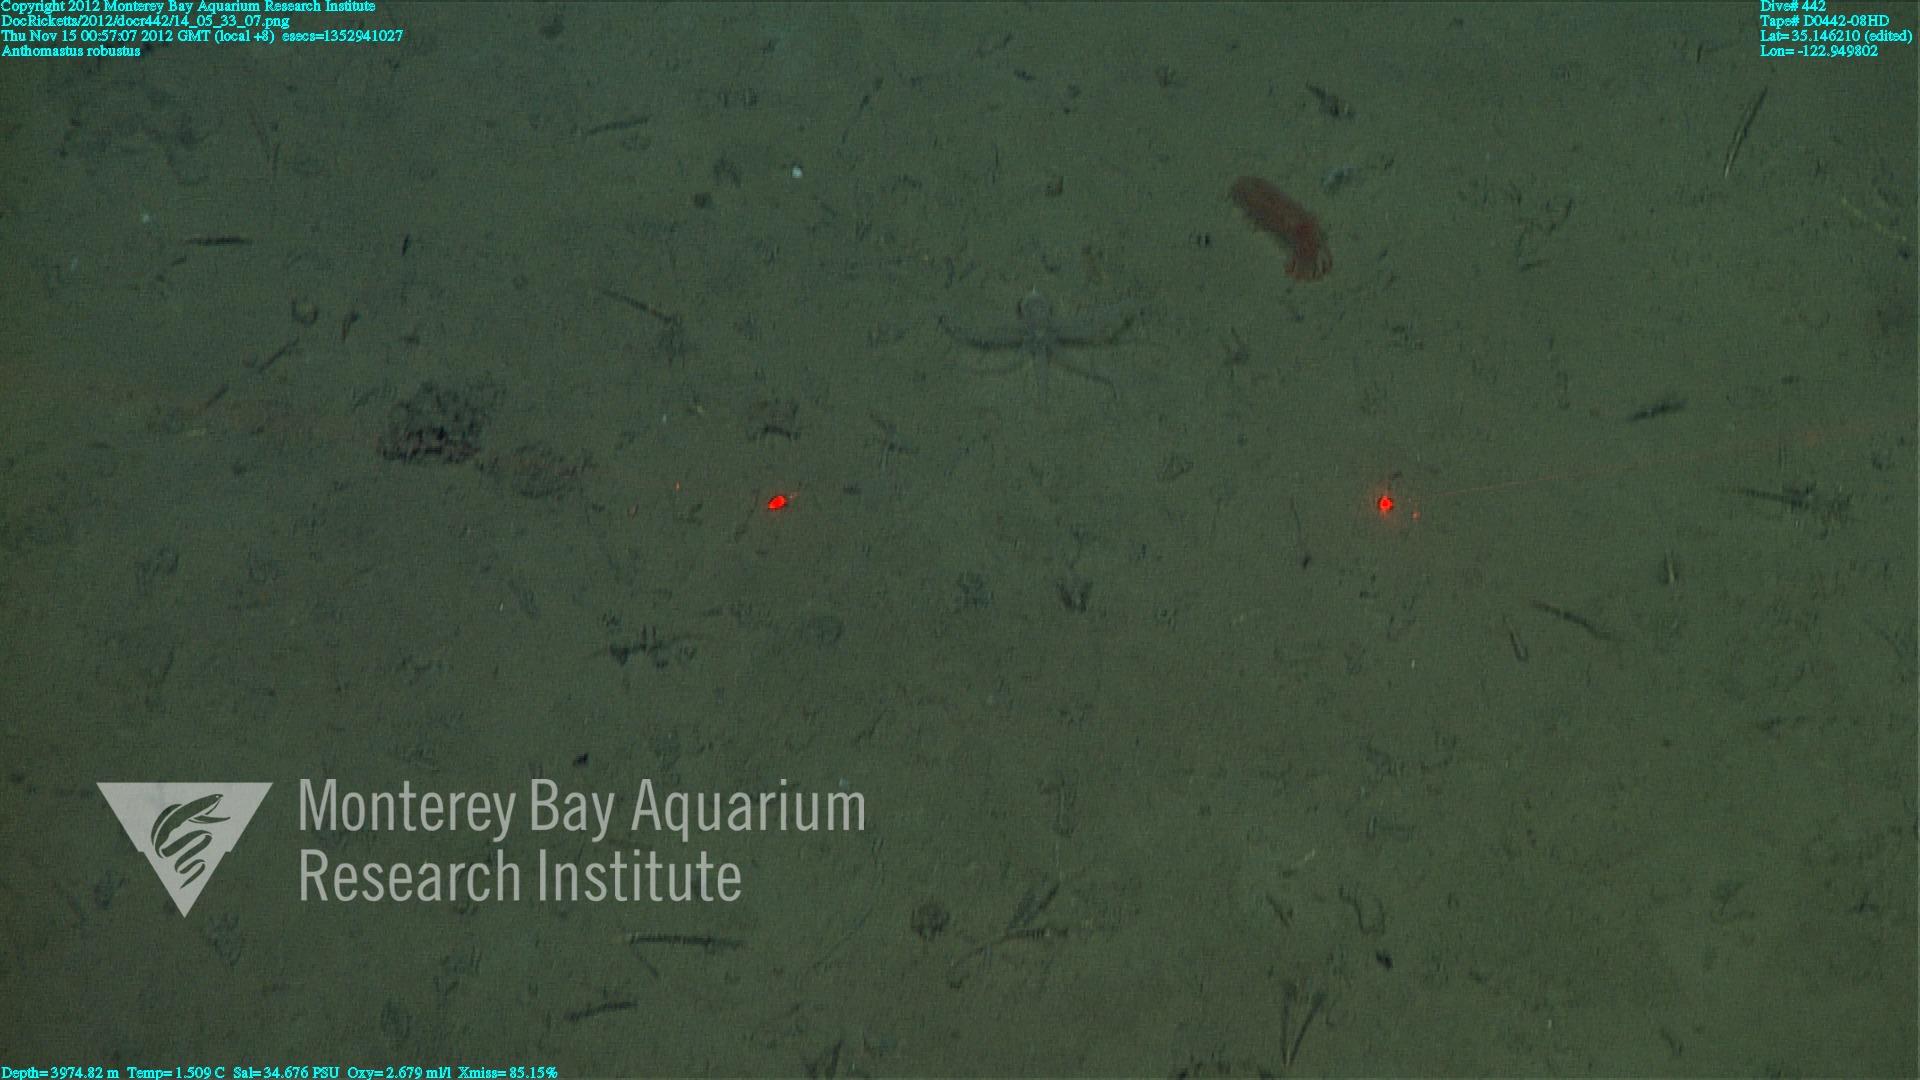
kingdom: Animalia
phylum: Cnidaria
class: Anthozoa
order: Scleralcyonacea
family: Coralliidae
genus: Bathyalcyon
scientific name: Bathyalcyon robustum
